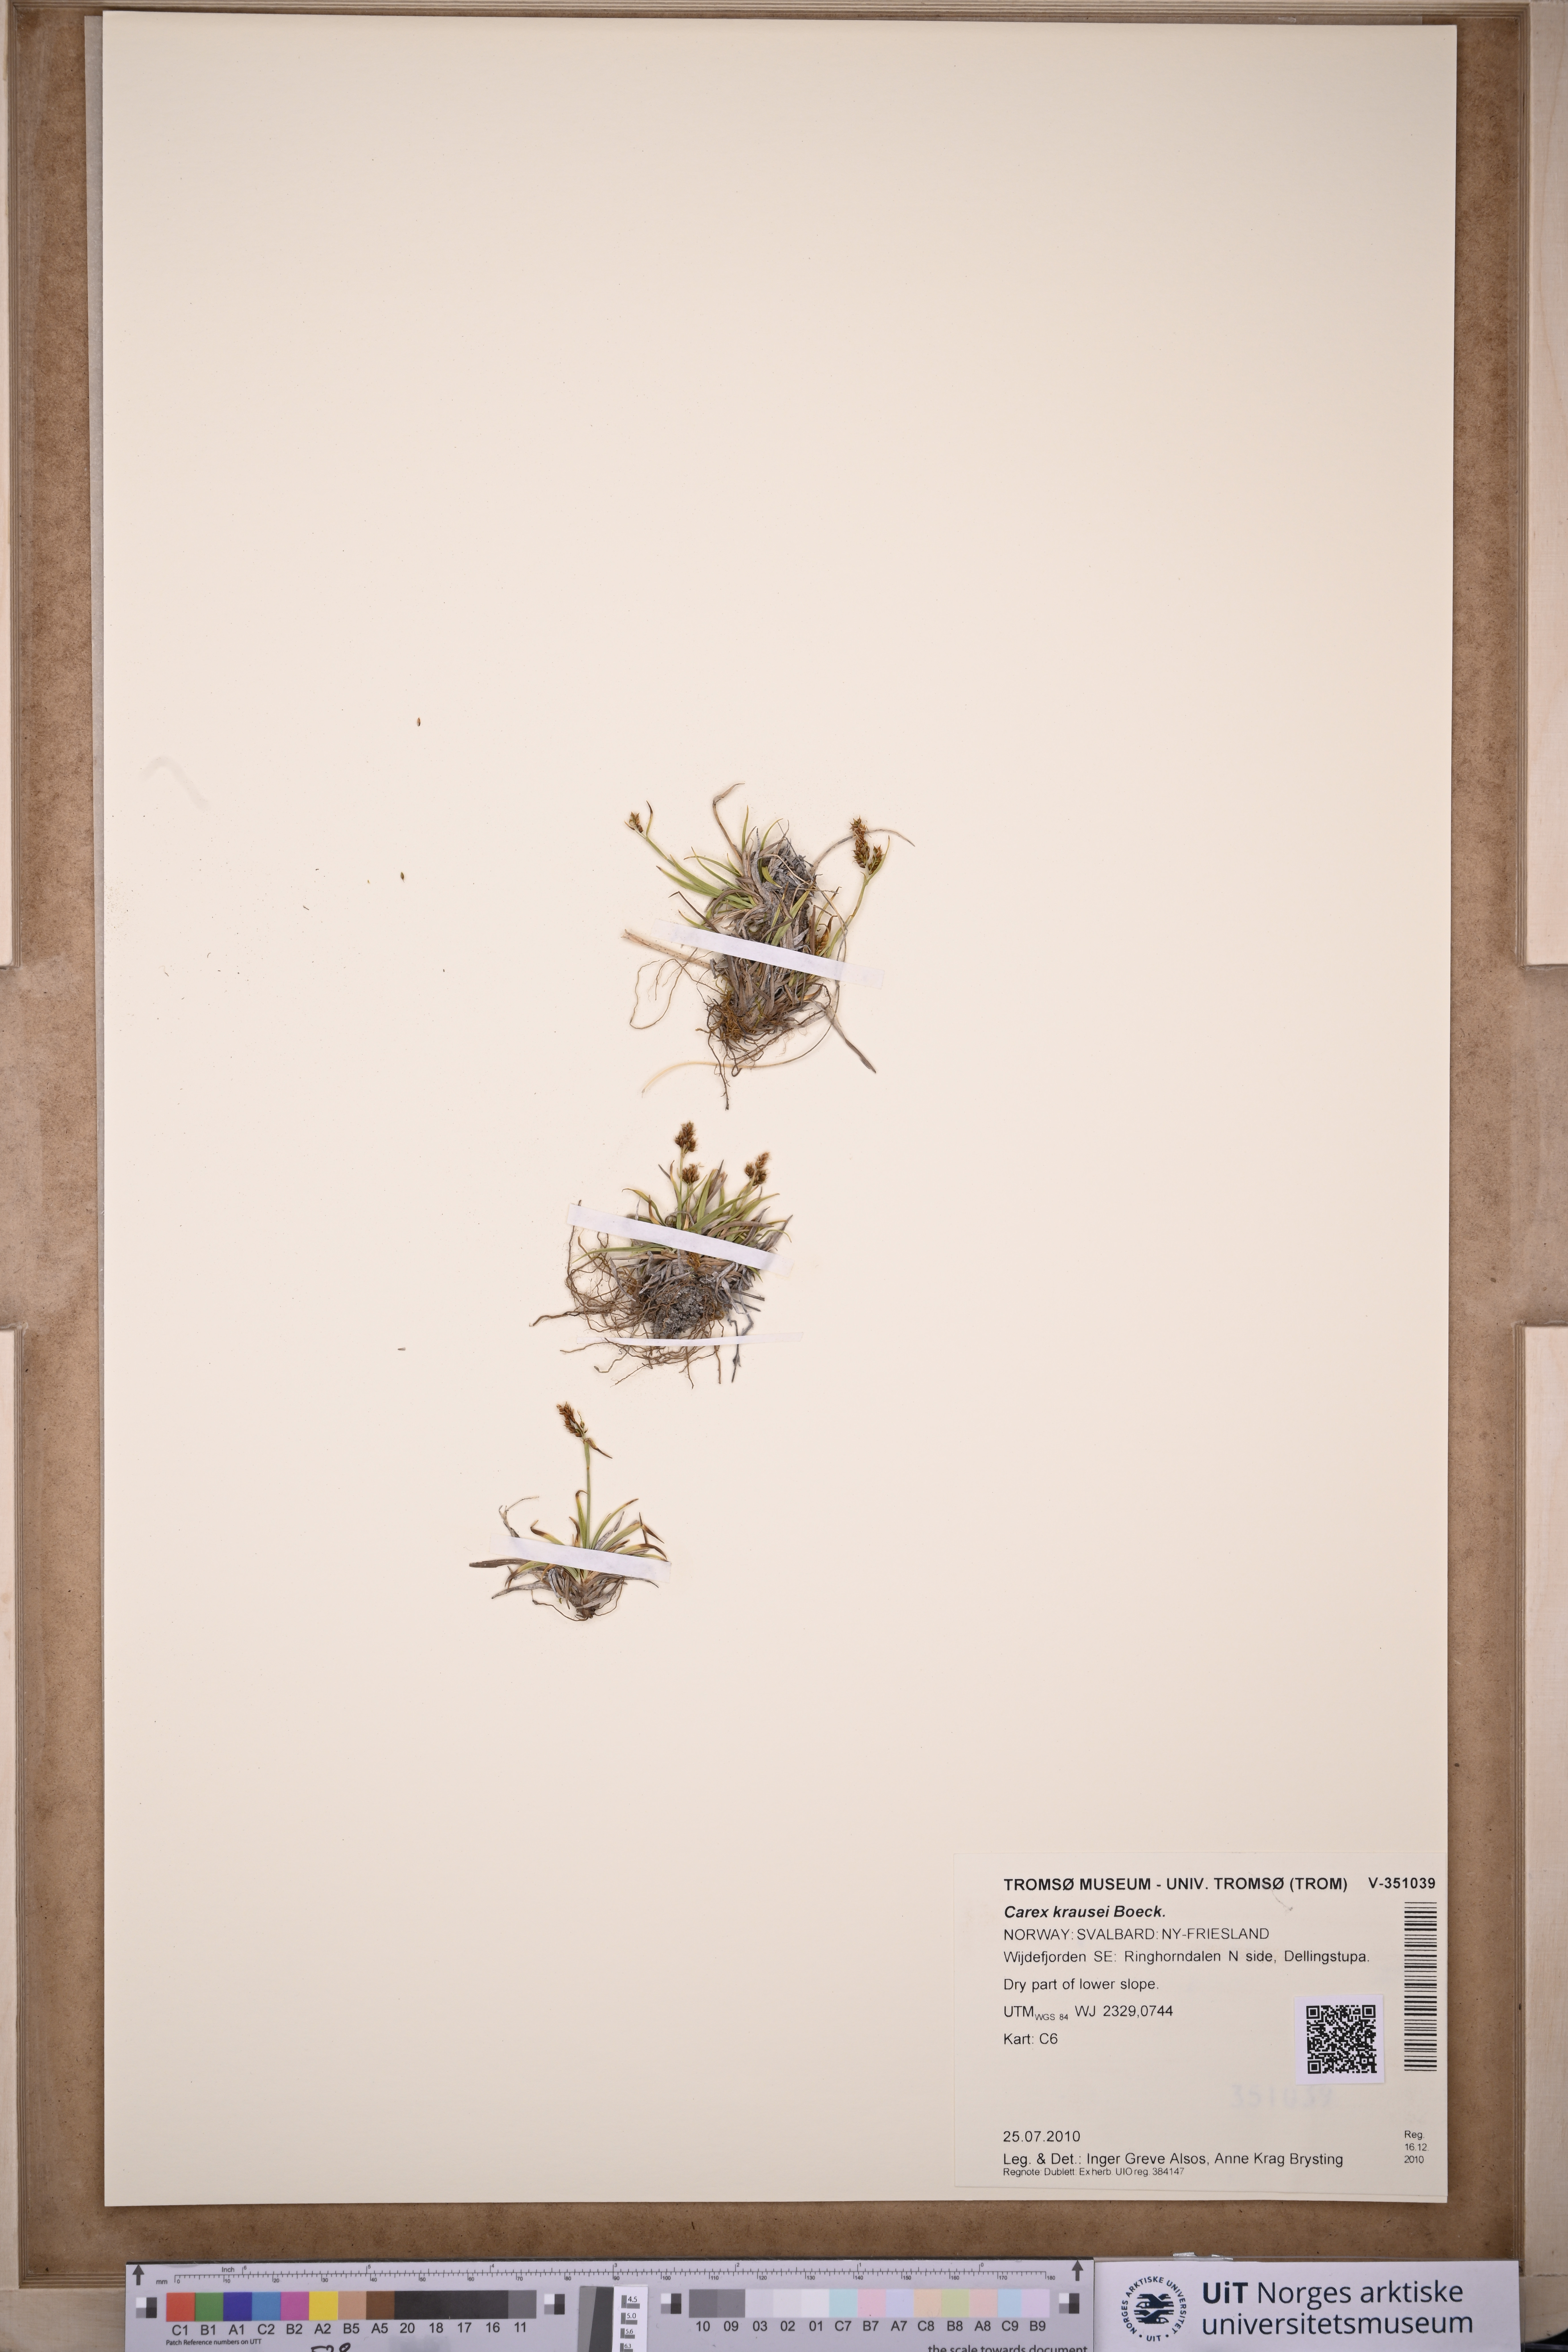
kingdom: Plantae
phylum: Tracheophyta
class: Liliopsida
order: Poales
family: Cyperaceae
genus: Carex
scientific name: Carex krausei
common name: Krause's sedge
